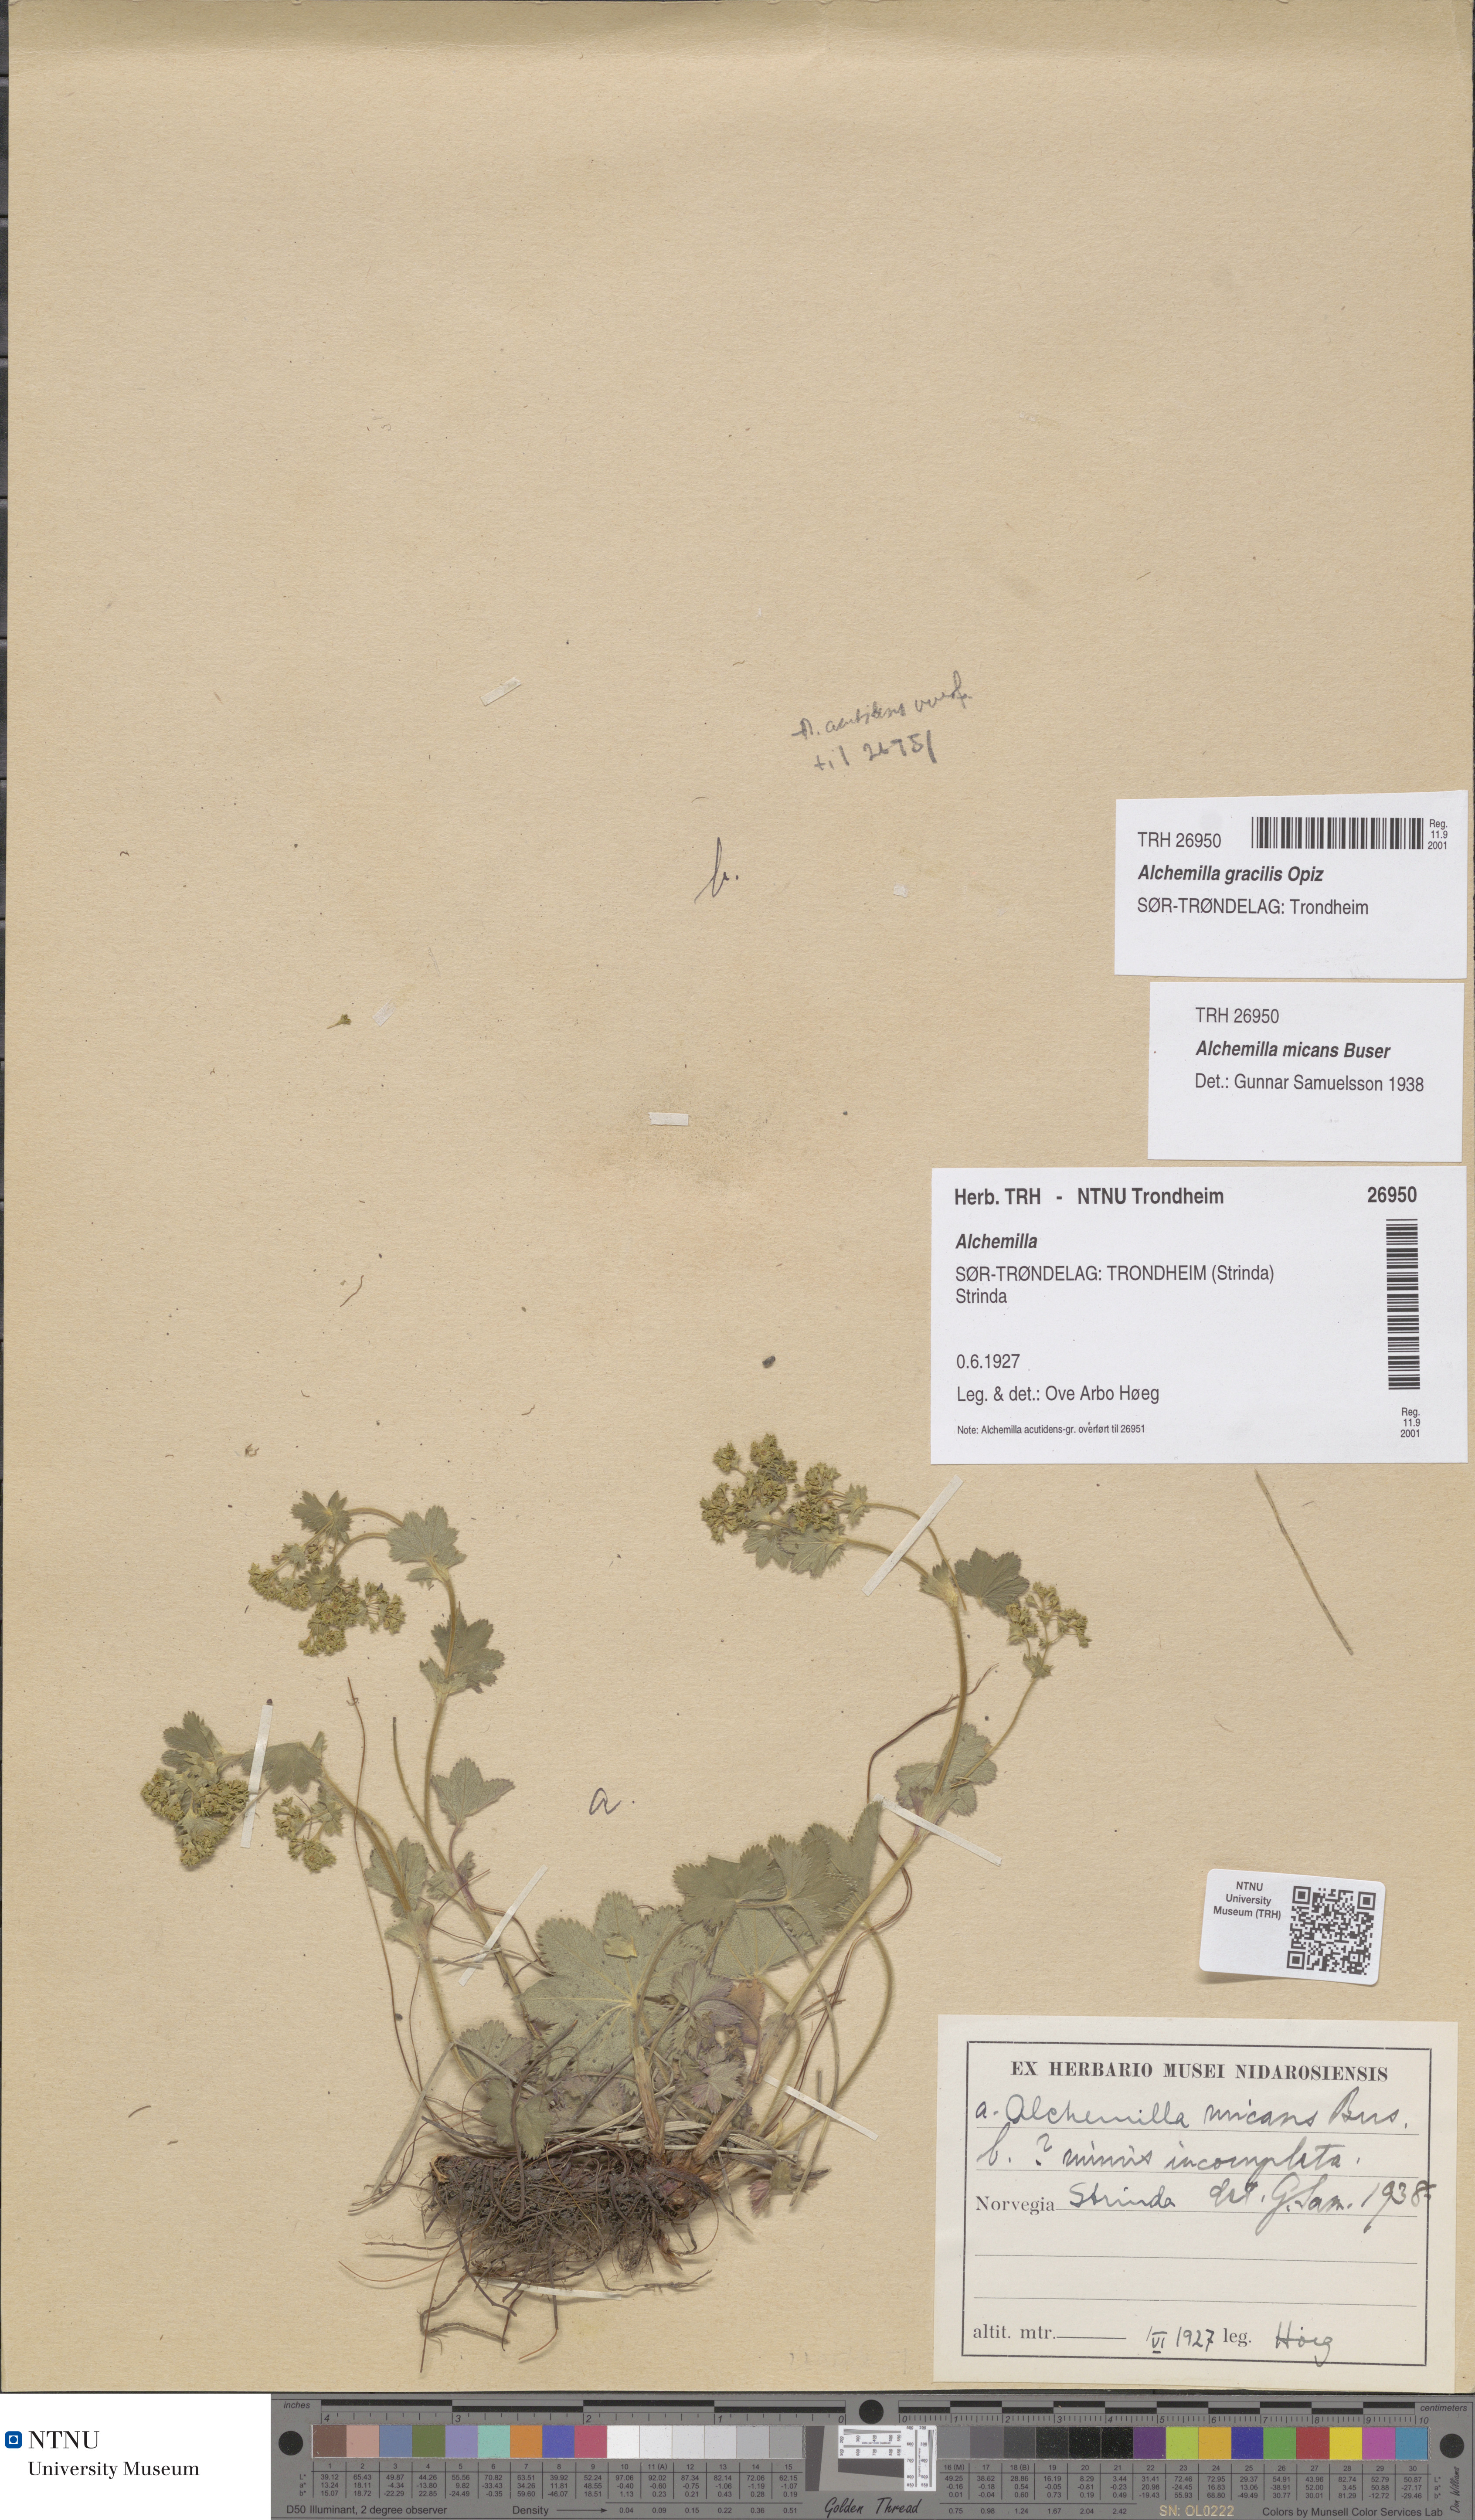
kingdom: Plantae
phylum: Tracheophyta
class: Magnoliopsida
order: Rosales
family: Rosaceae
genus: Alchemilla
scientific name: Alchemilla micans
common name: Gleaming lady's mantle
